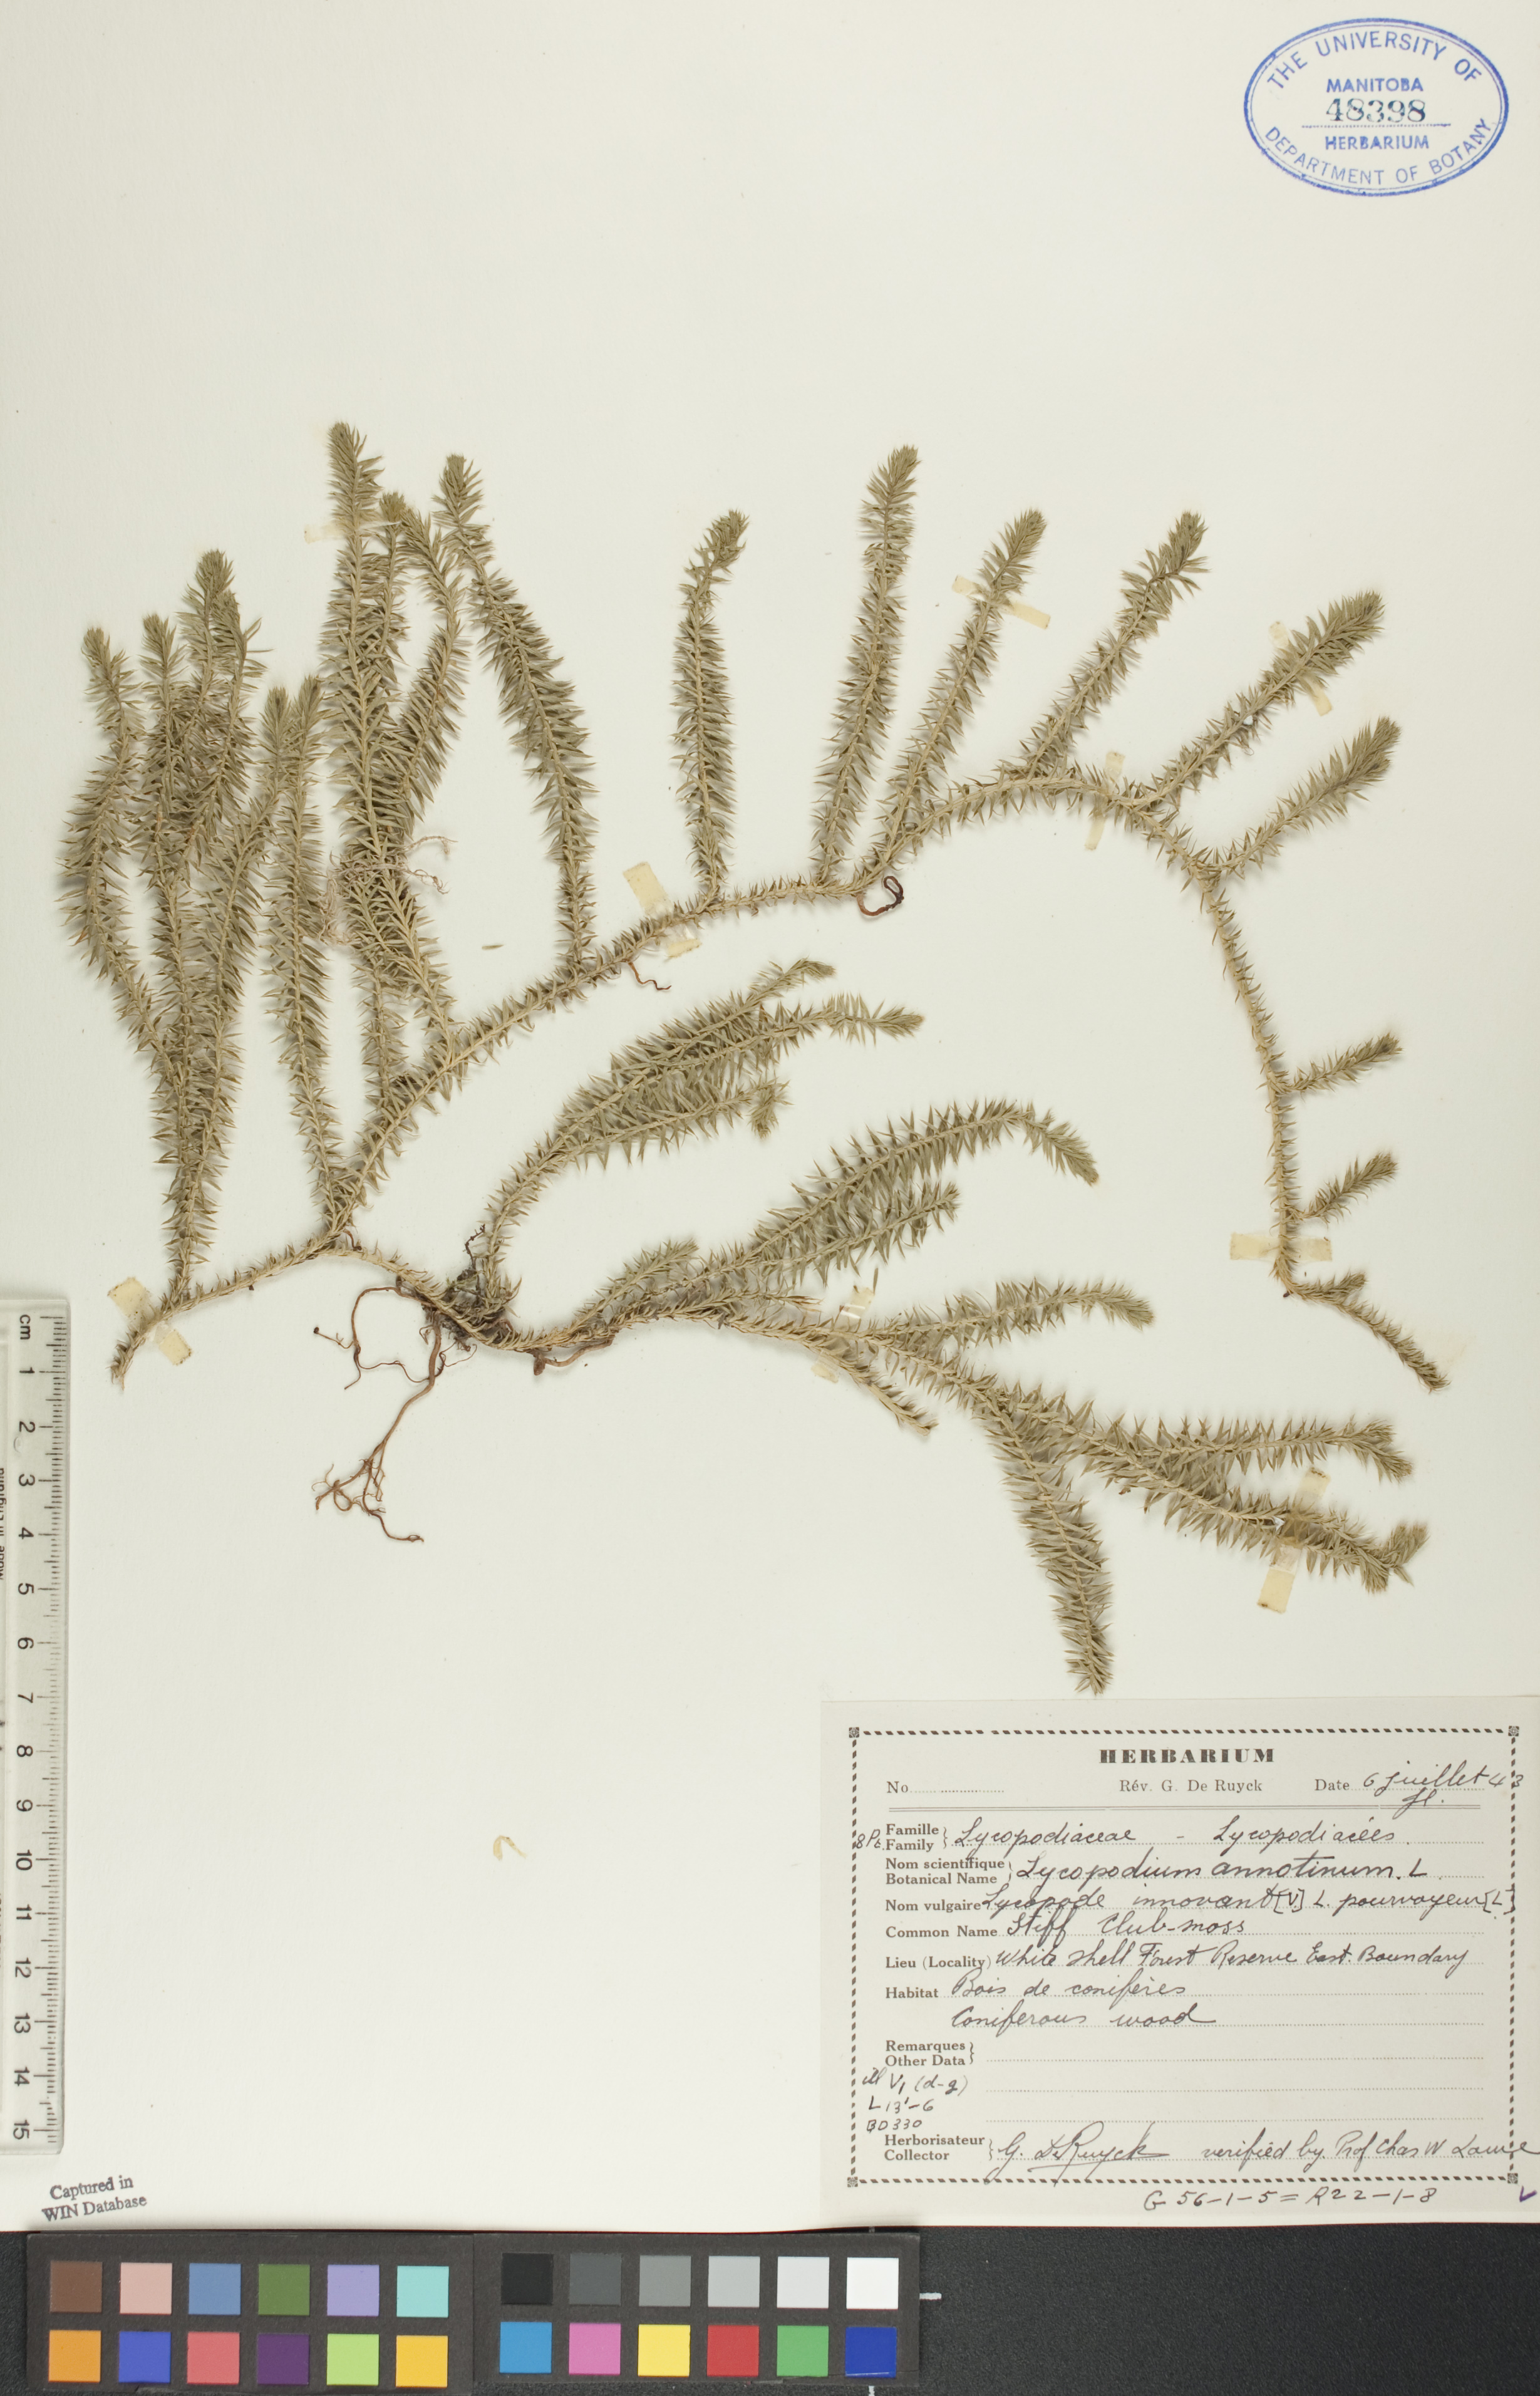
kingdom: Plantae
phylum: Tracheophyta
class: Lycopodiopsida
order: Lycopodiales
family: Lycopodiaceae
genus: Spinulum
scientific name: Spinulum annotinum
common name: Interrupted club-moss
